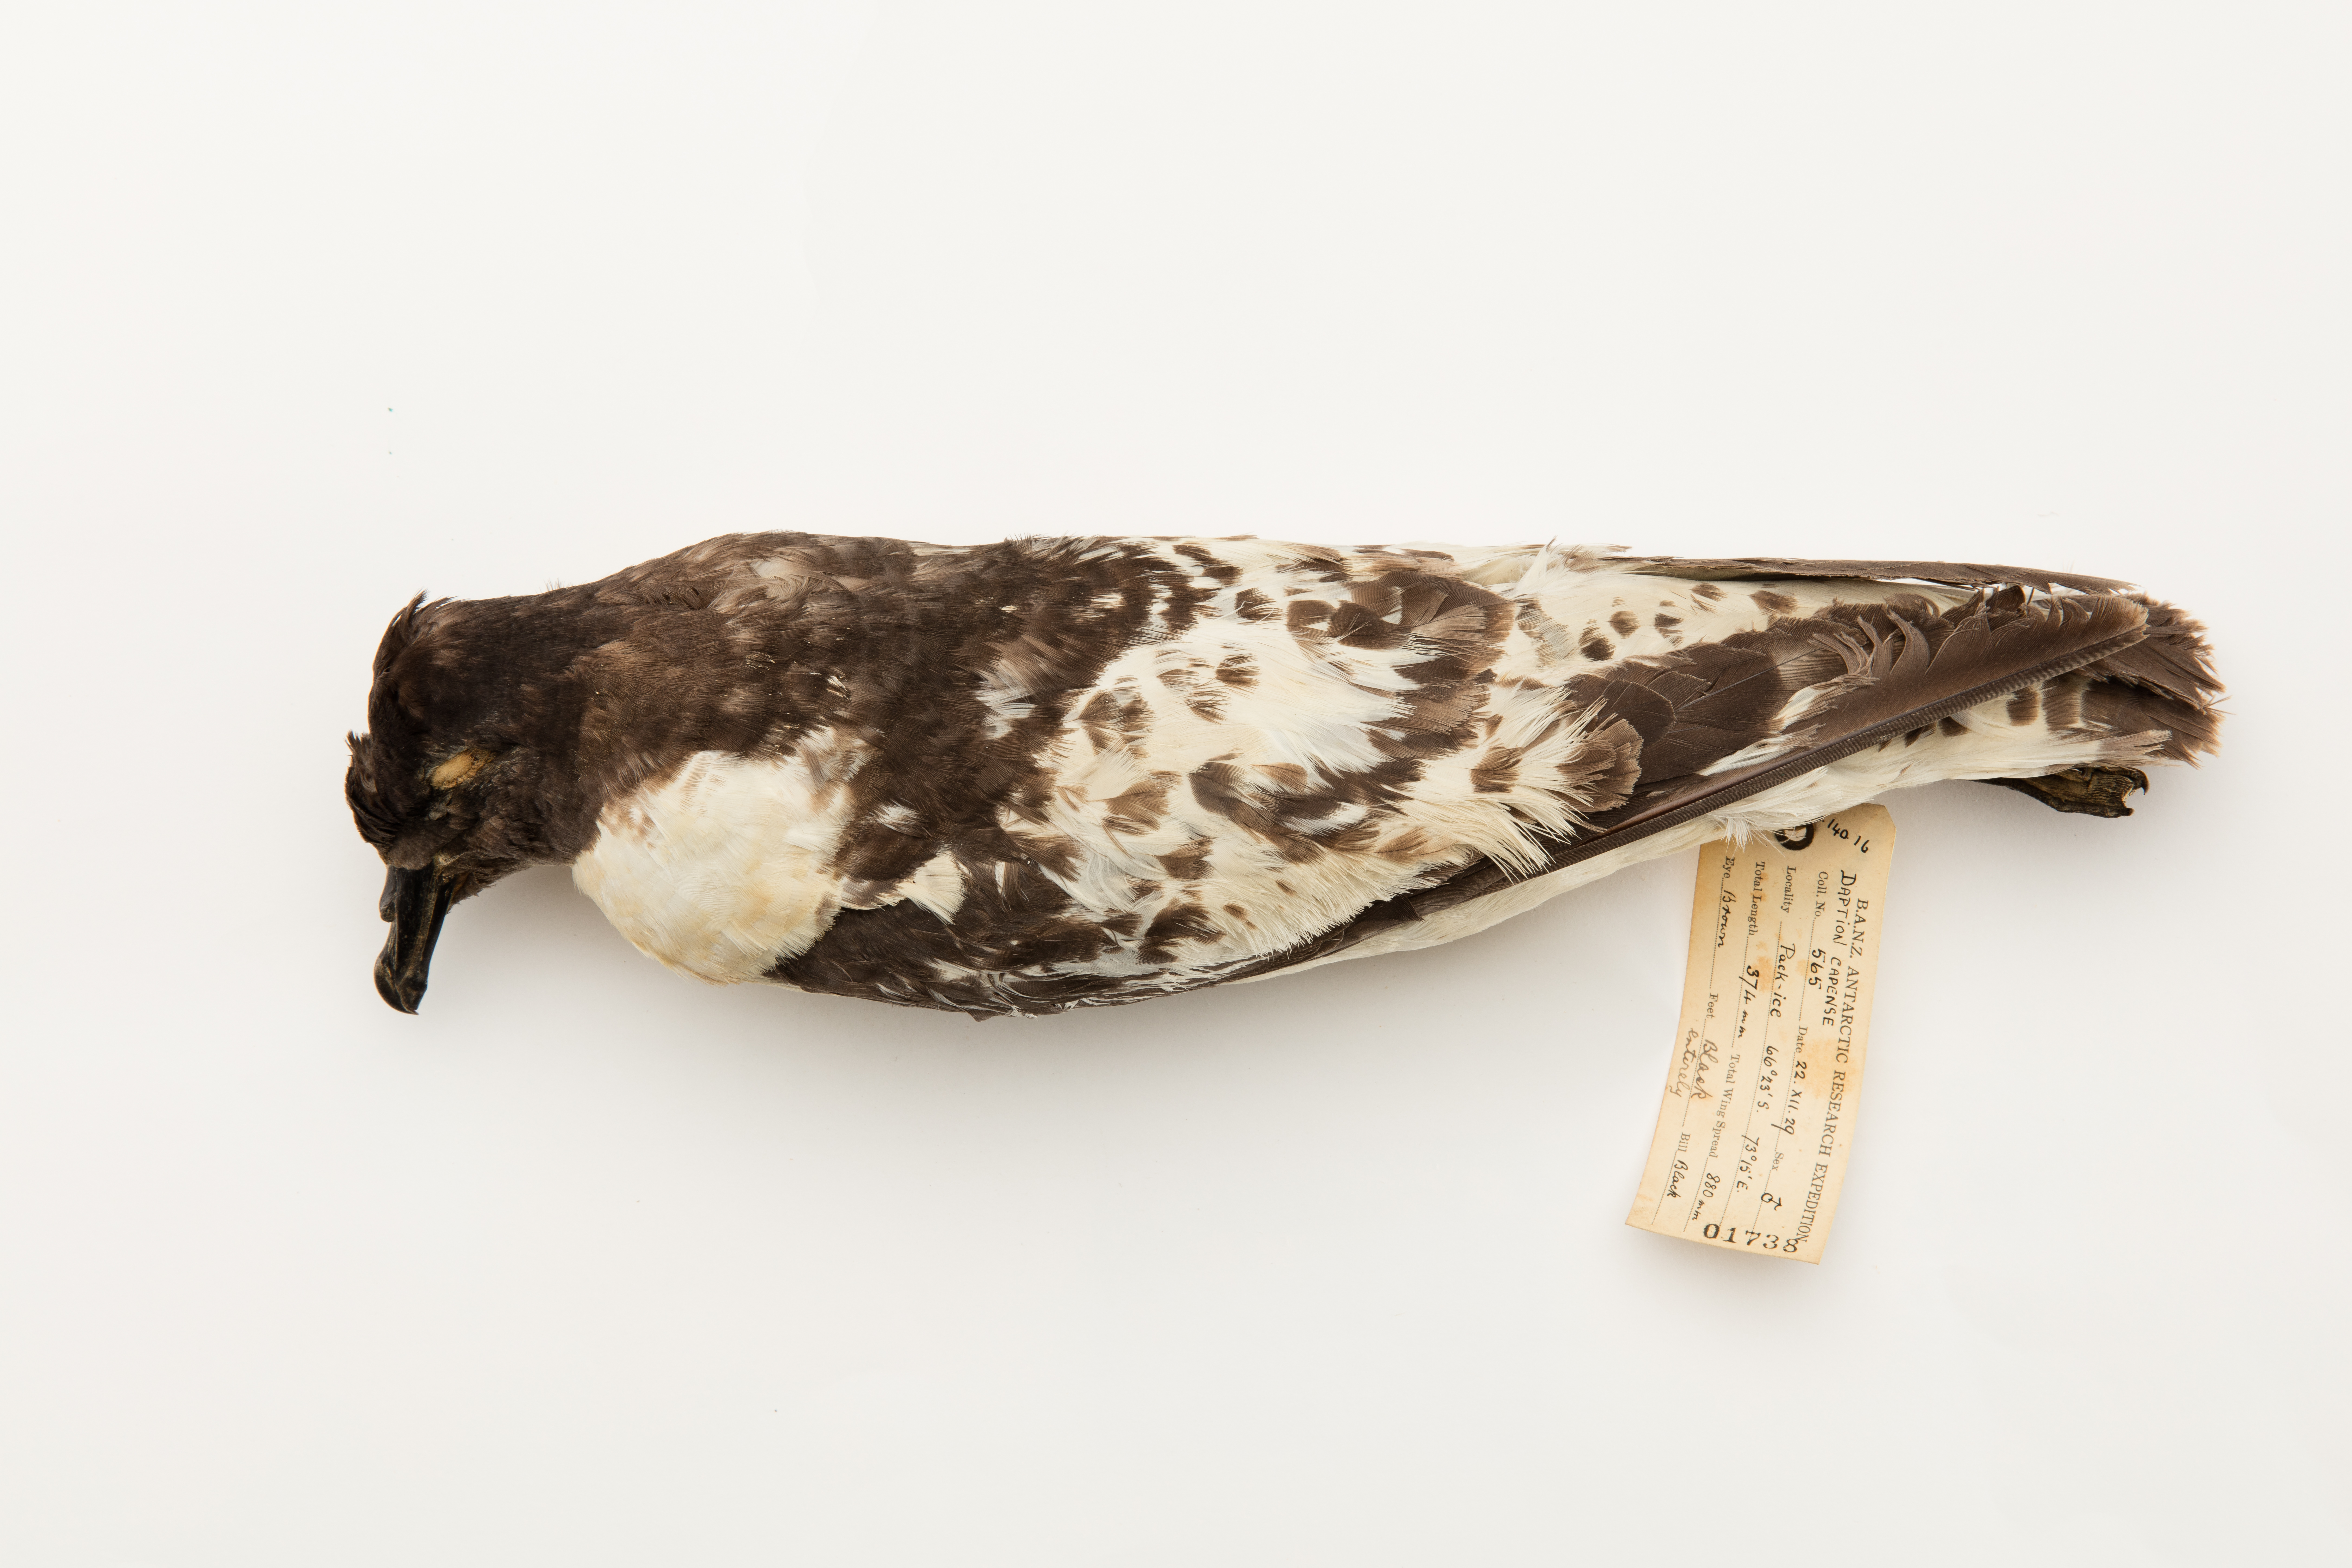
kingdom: Animalia
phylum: Chordata
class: Aves
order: Procellariiformes
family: Procellariidae
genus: Daption
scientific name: Daption capense
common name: Cape petrel
